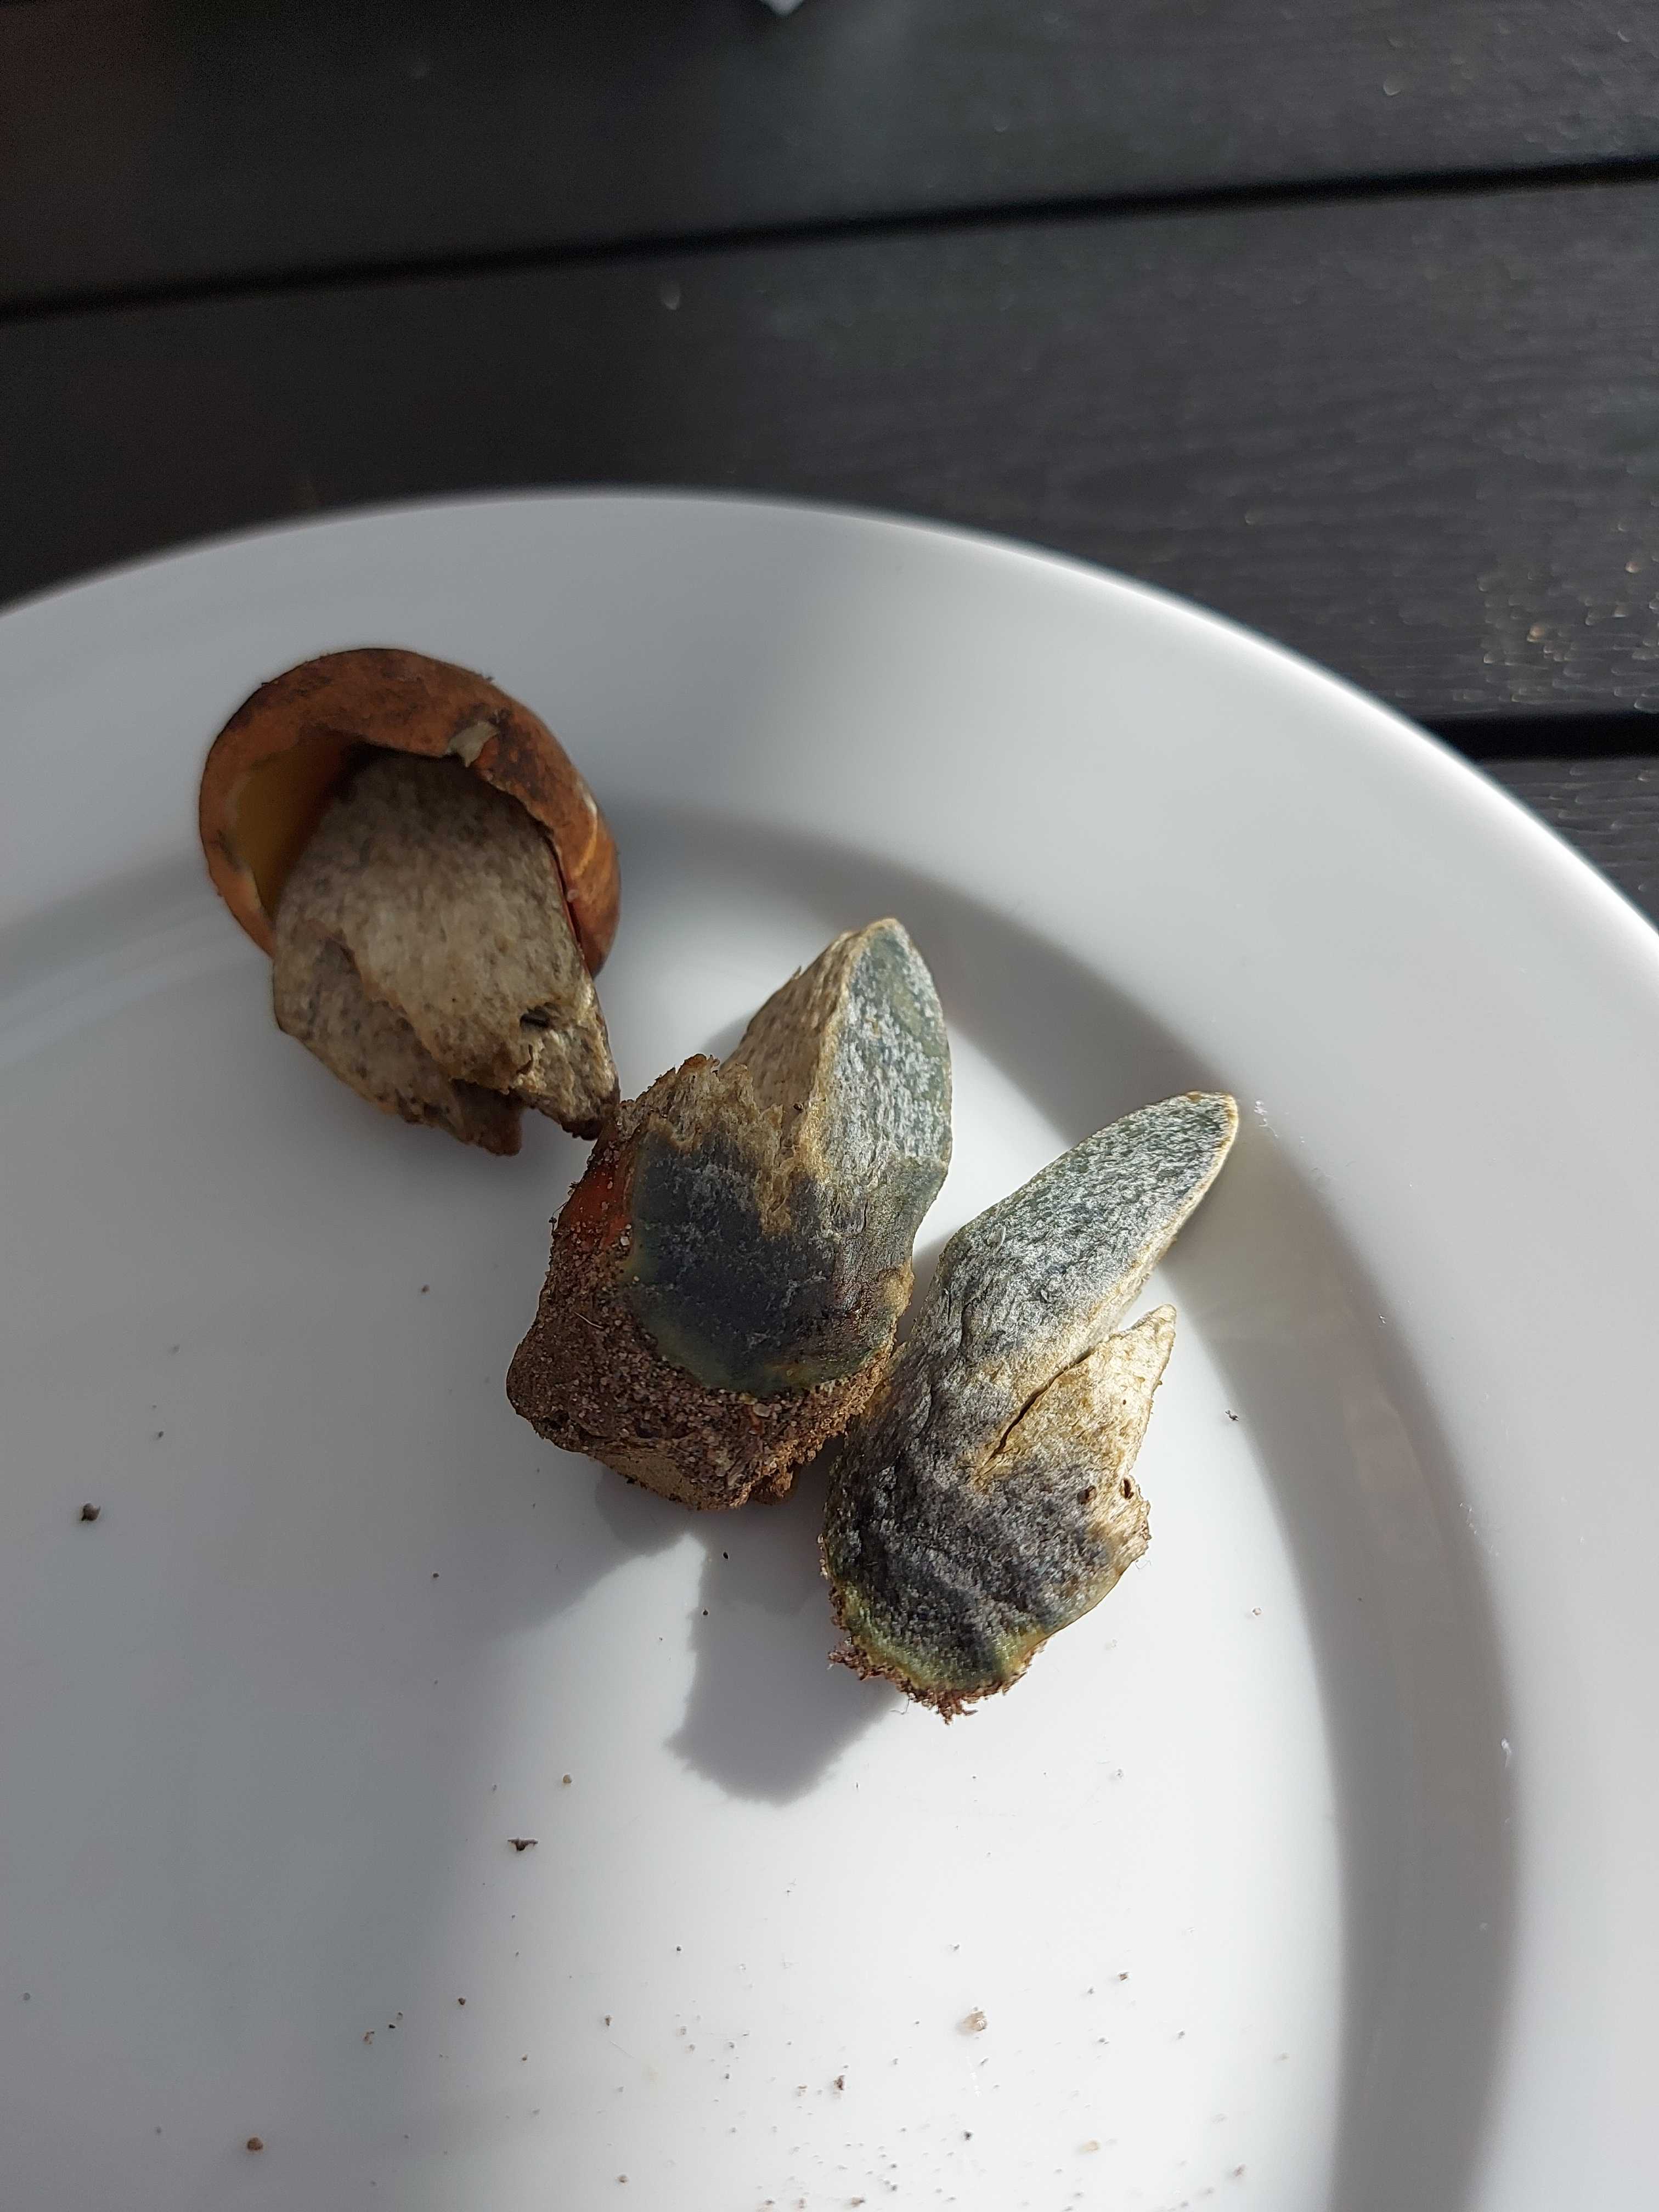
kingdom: Fungi
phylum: Basidiomycota
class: Agaricomycetes
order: Boletales
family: Boletaceae
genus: Neoboletus
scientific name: Neoboletus erythropus
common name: punktstokket indigorørhat
